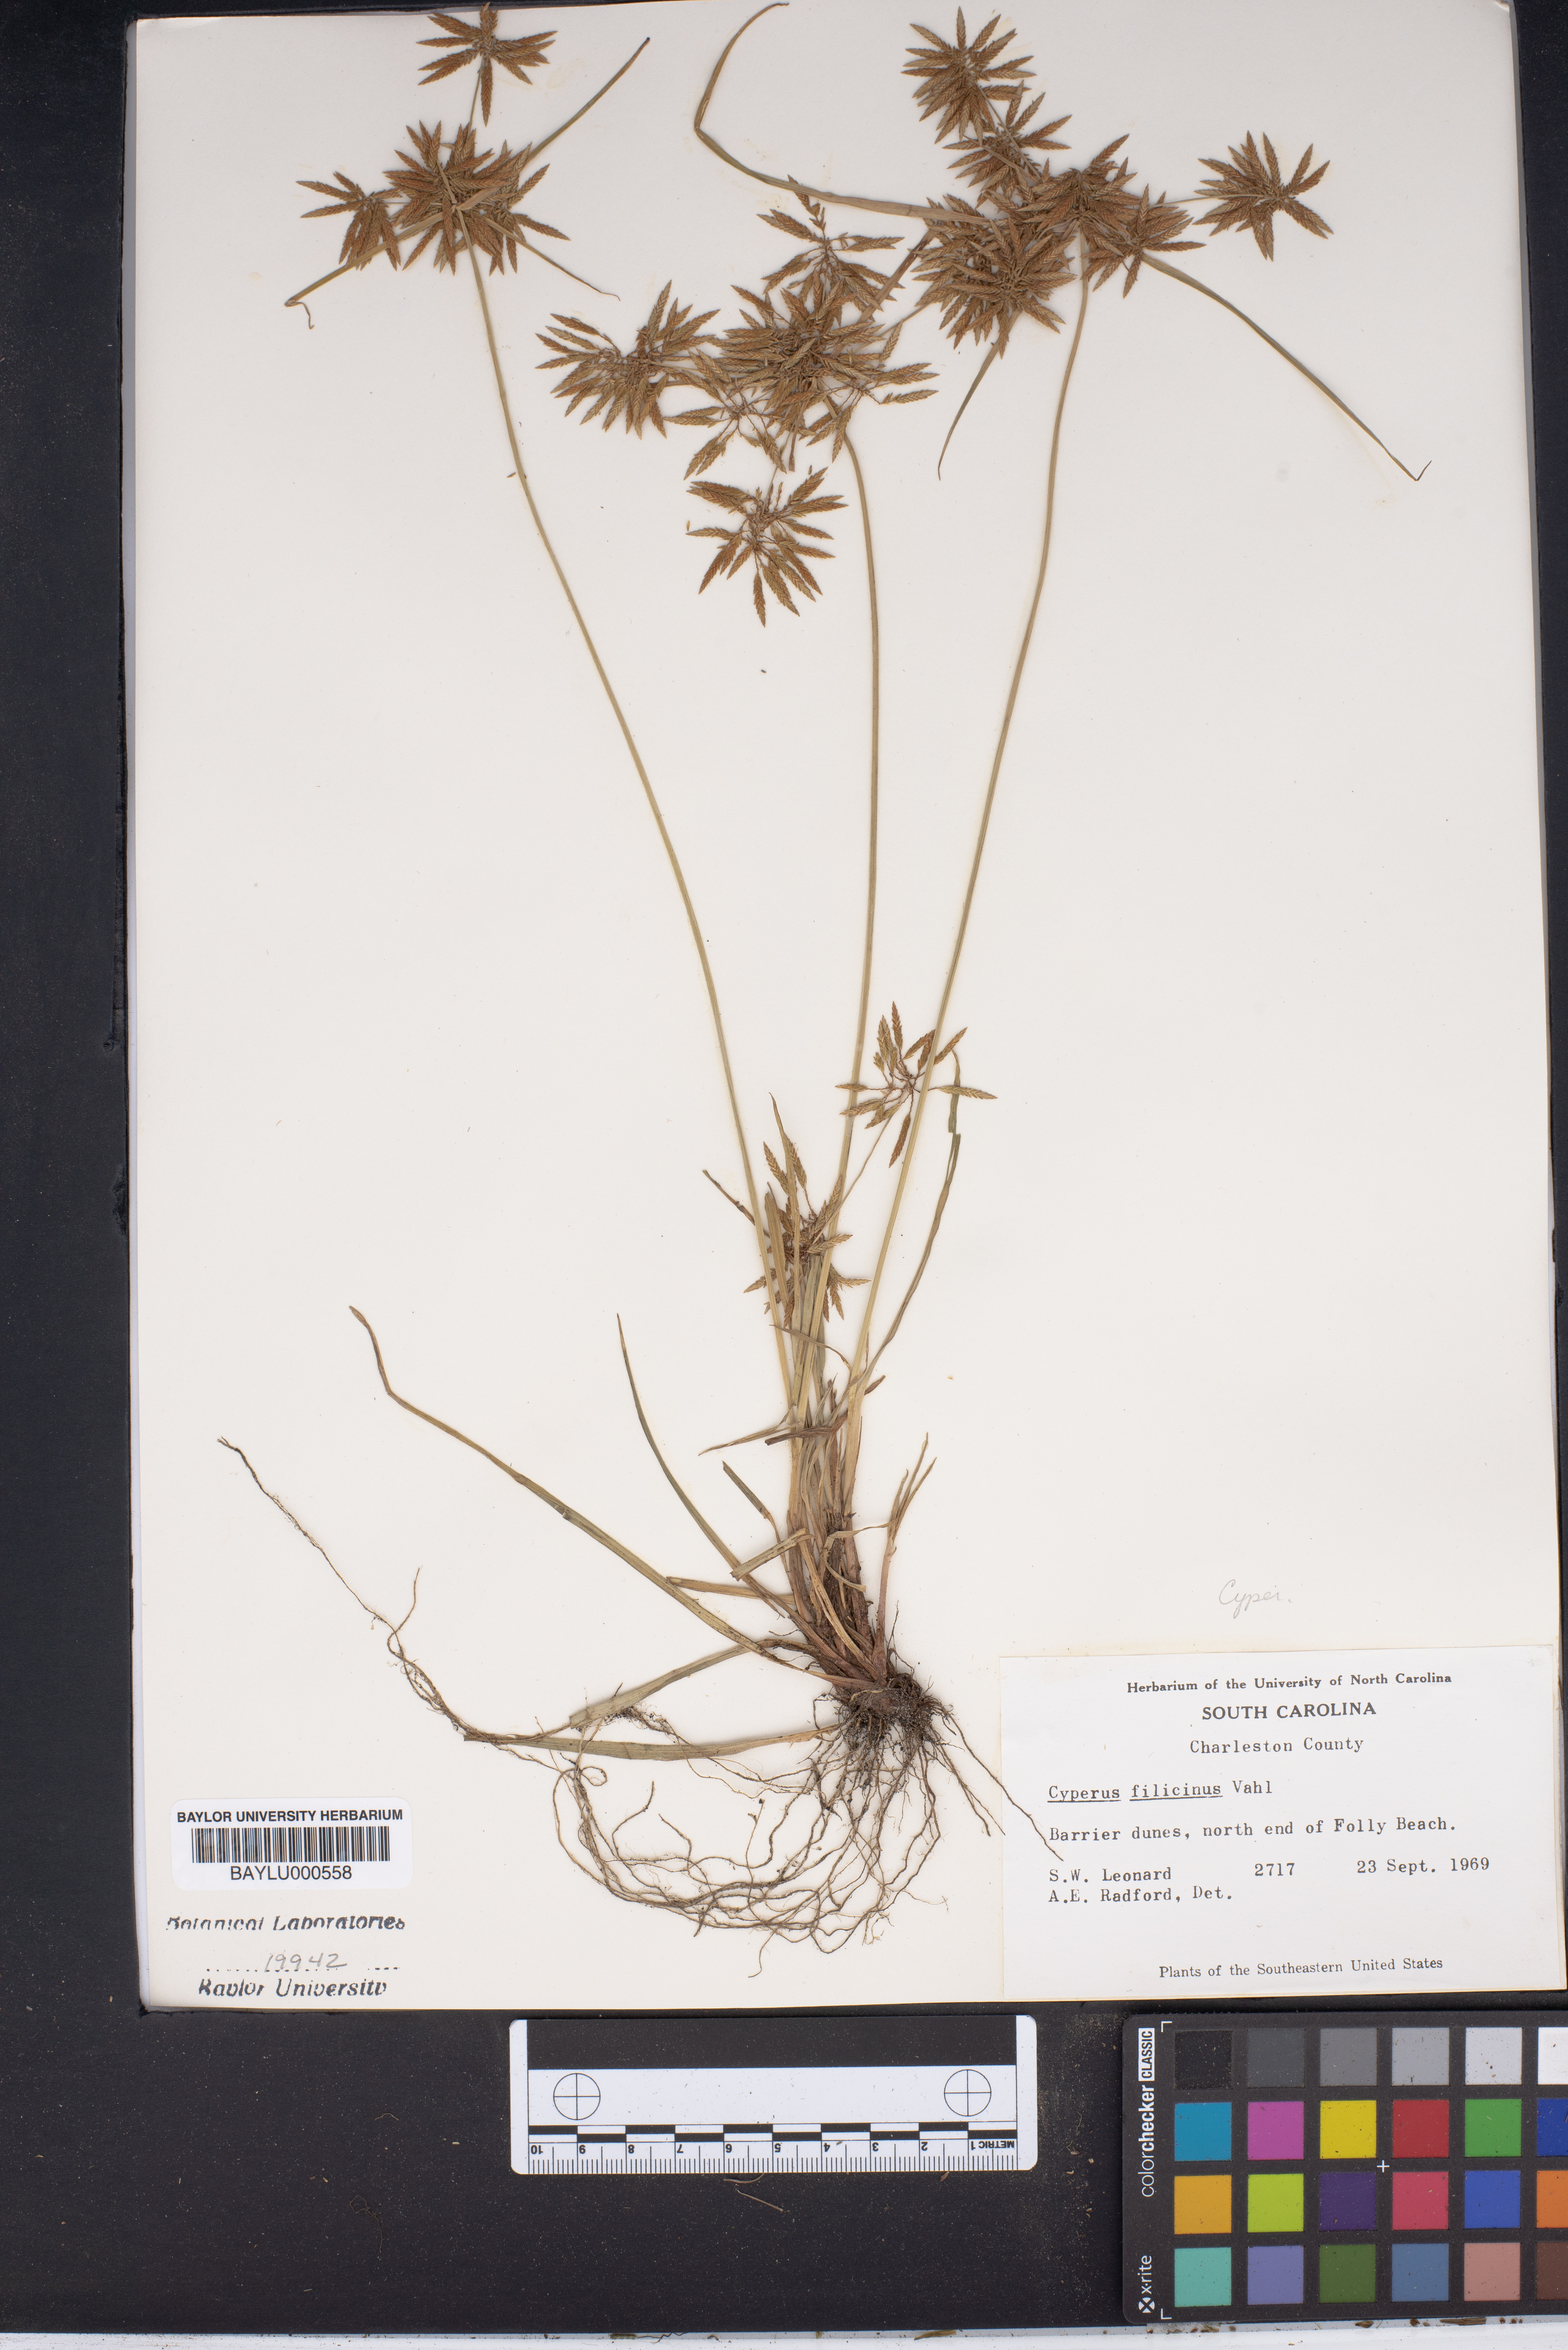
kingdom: Plantae
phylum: Tracheophyta
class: Liliopsida
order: Poales
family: Cyperaceae
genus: Cyperus
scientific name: Cyperus filicinus
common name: Fern flatsedge
